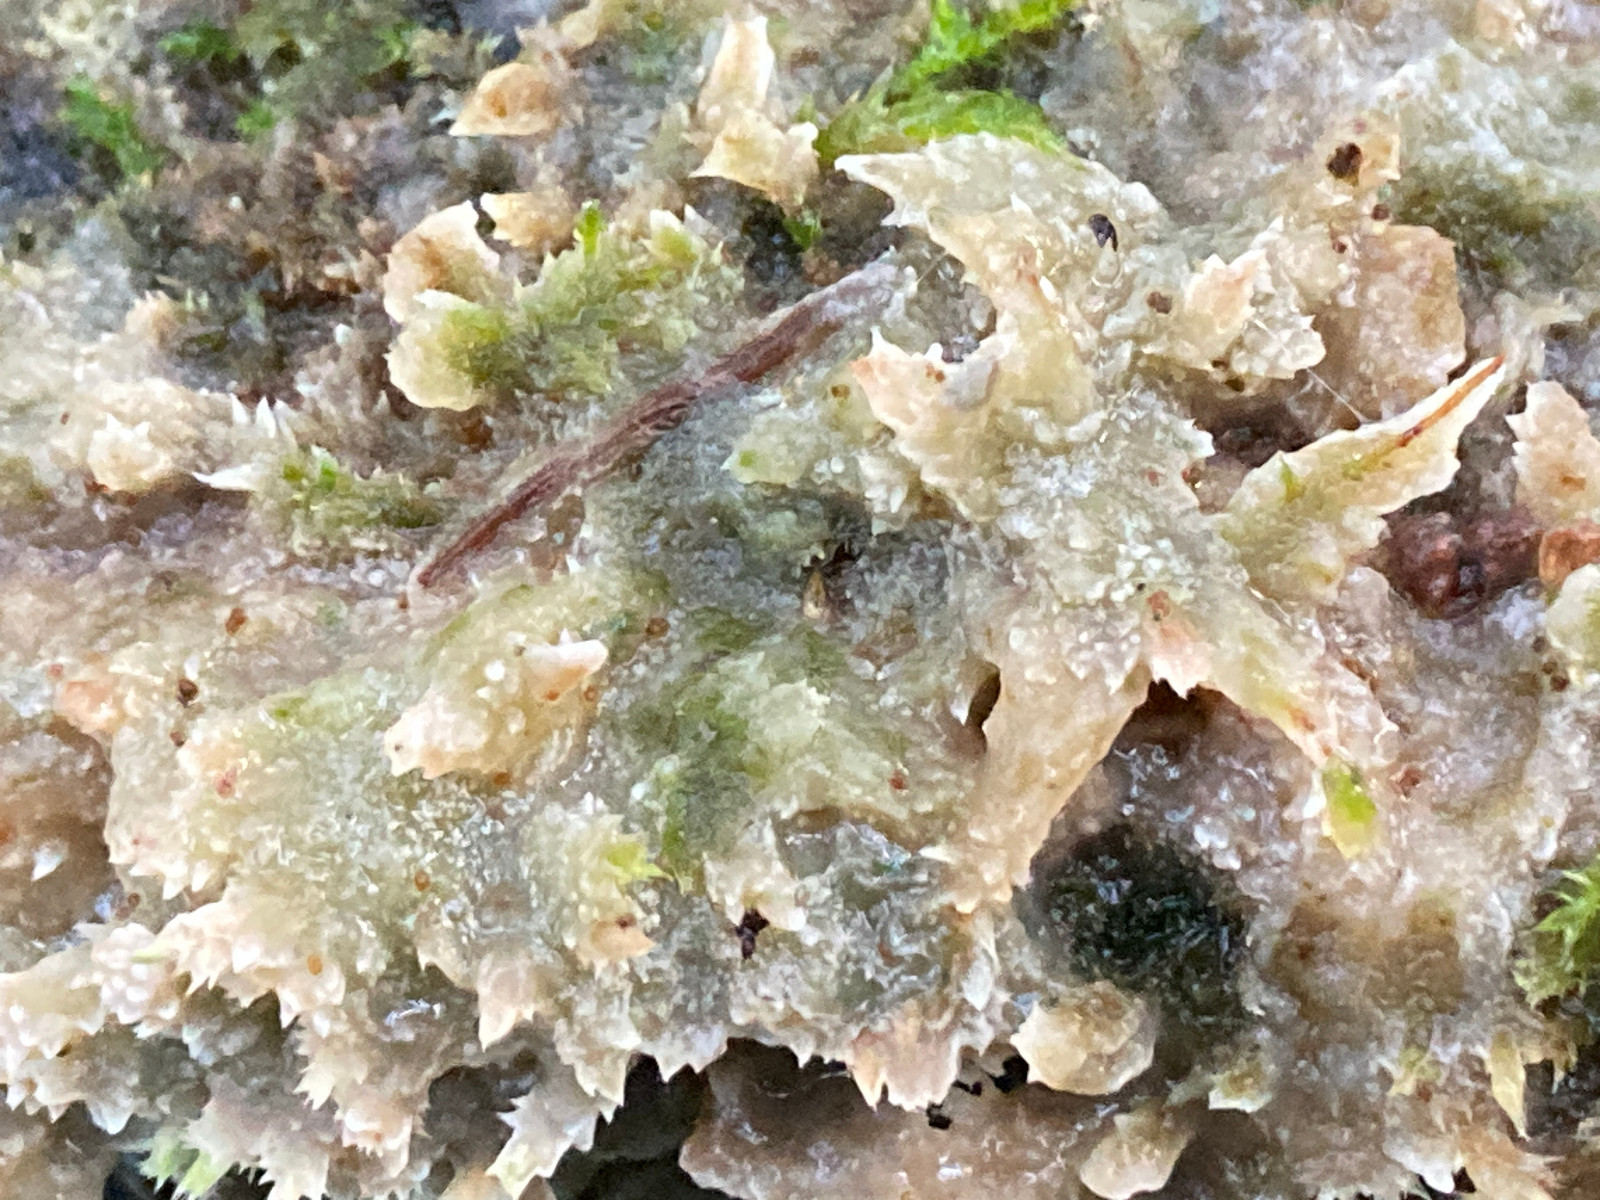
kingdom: Fungi
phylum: Basidiomycota
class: Agaricomycetes
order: Corticiales
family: Corticiaceae
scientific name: Corticiaceae
